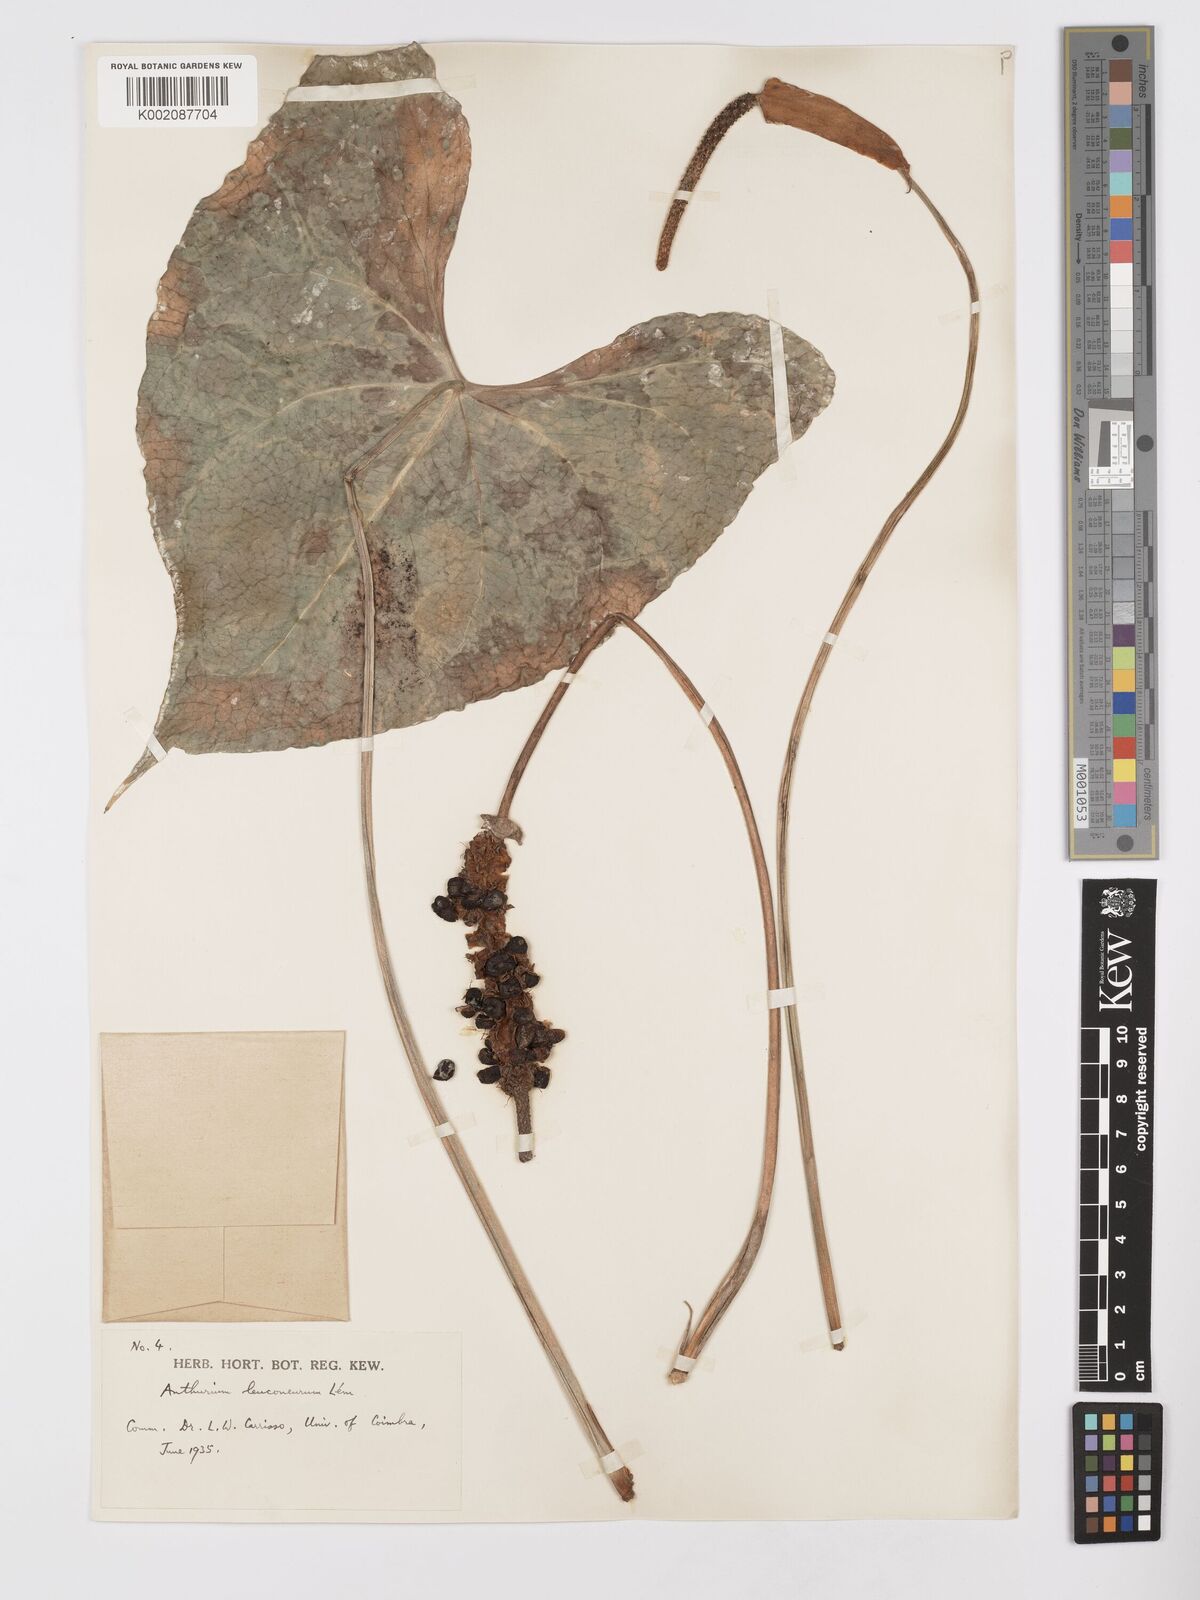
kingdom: Plantae
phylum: Tracheophyta
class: Liliopsida
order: Alismatales
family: Araceae
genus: Anthurium
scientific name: Anthurium leuconeurum
